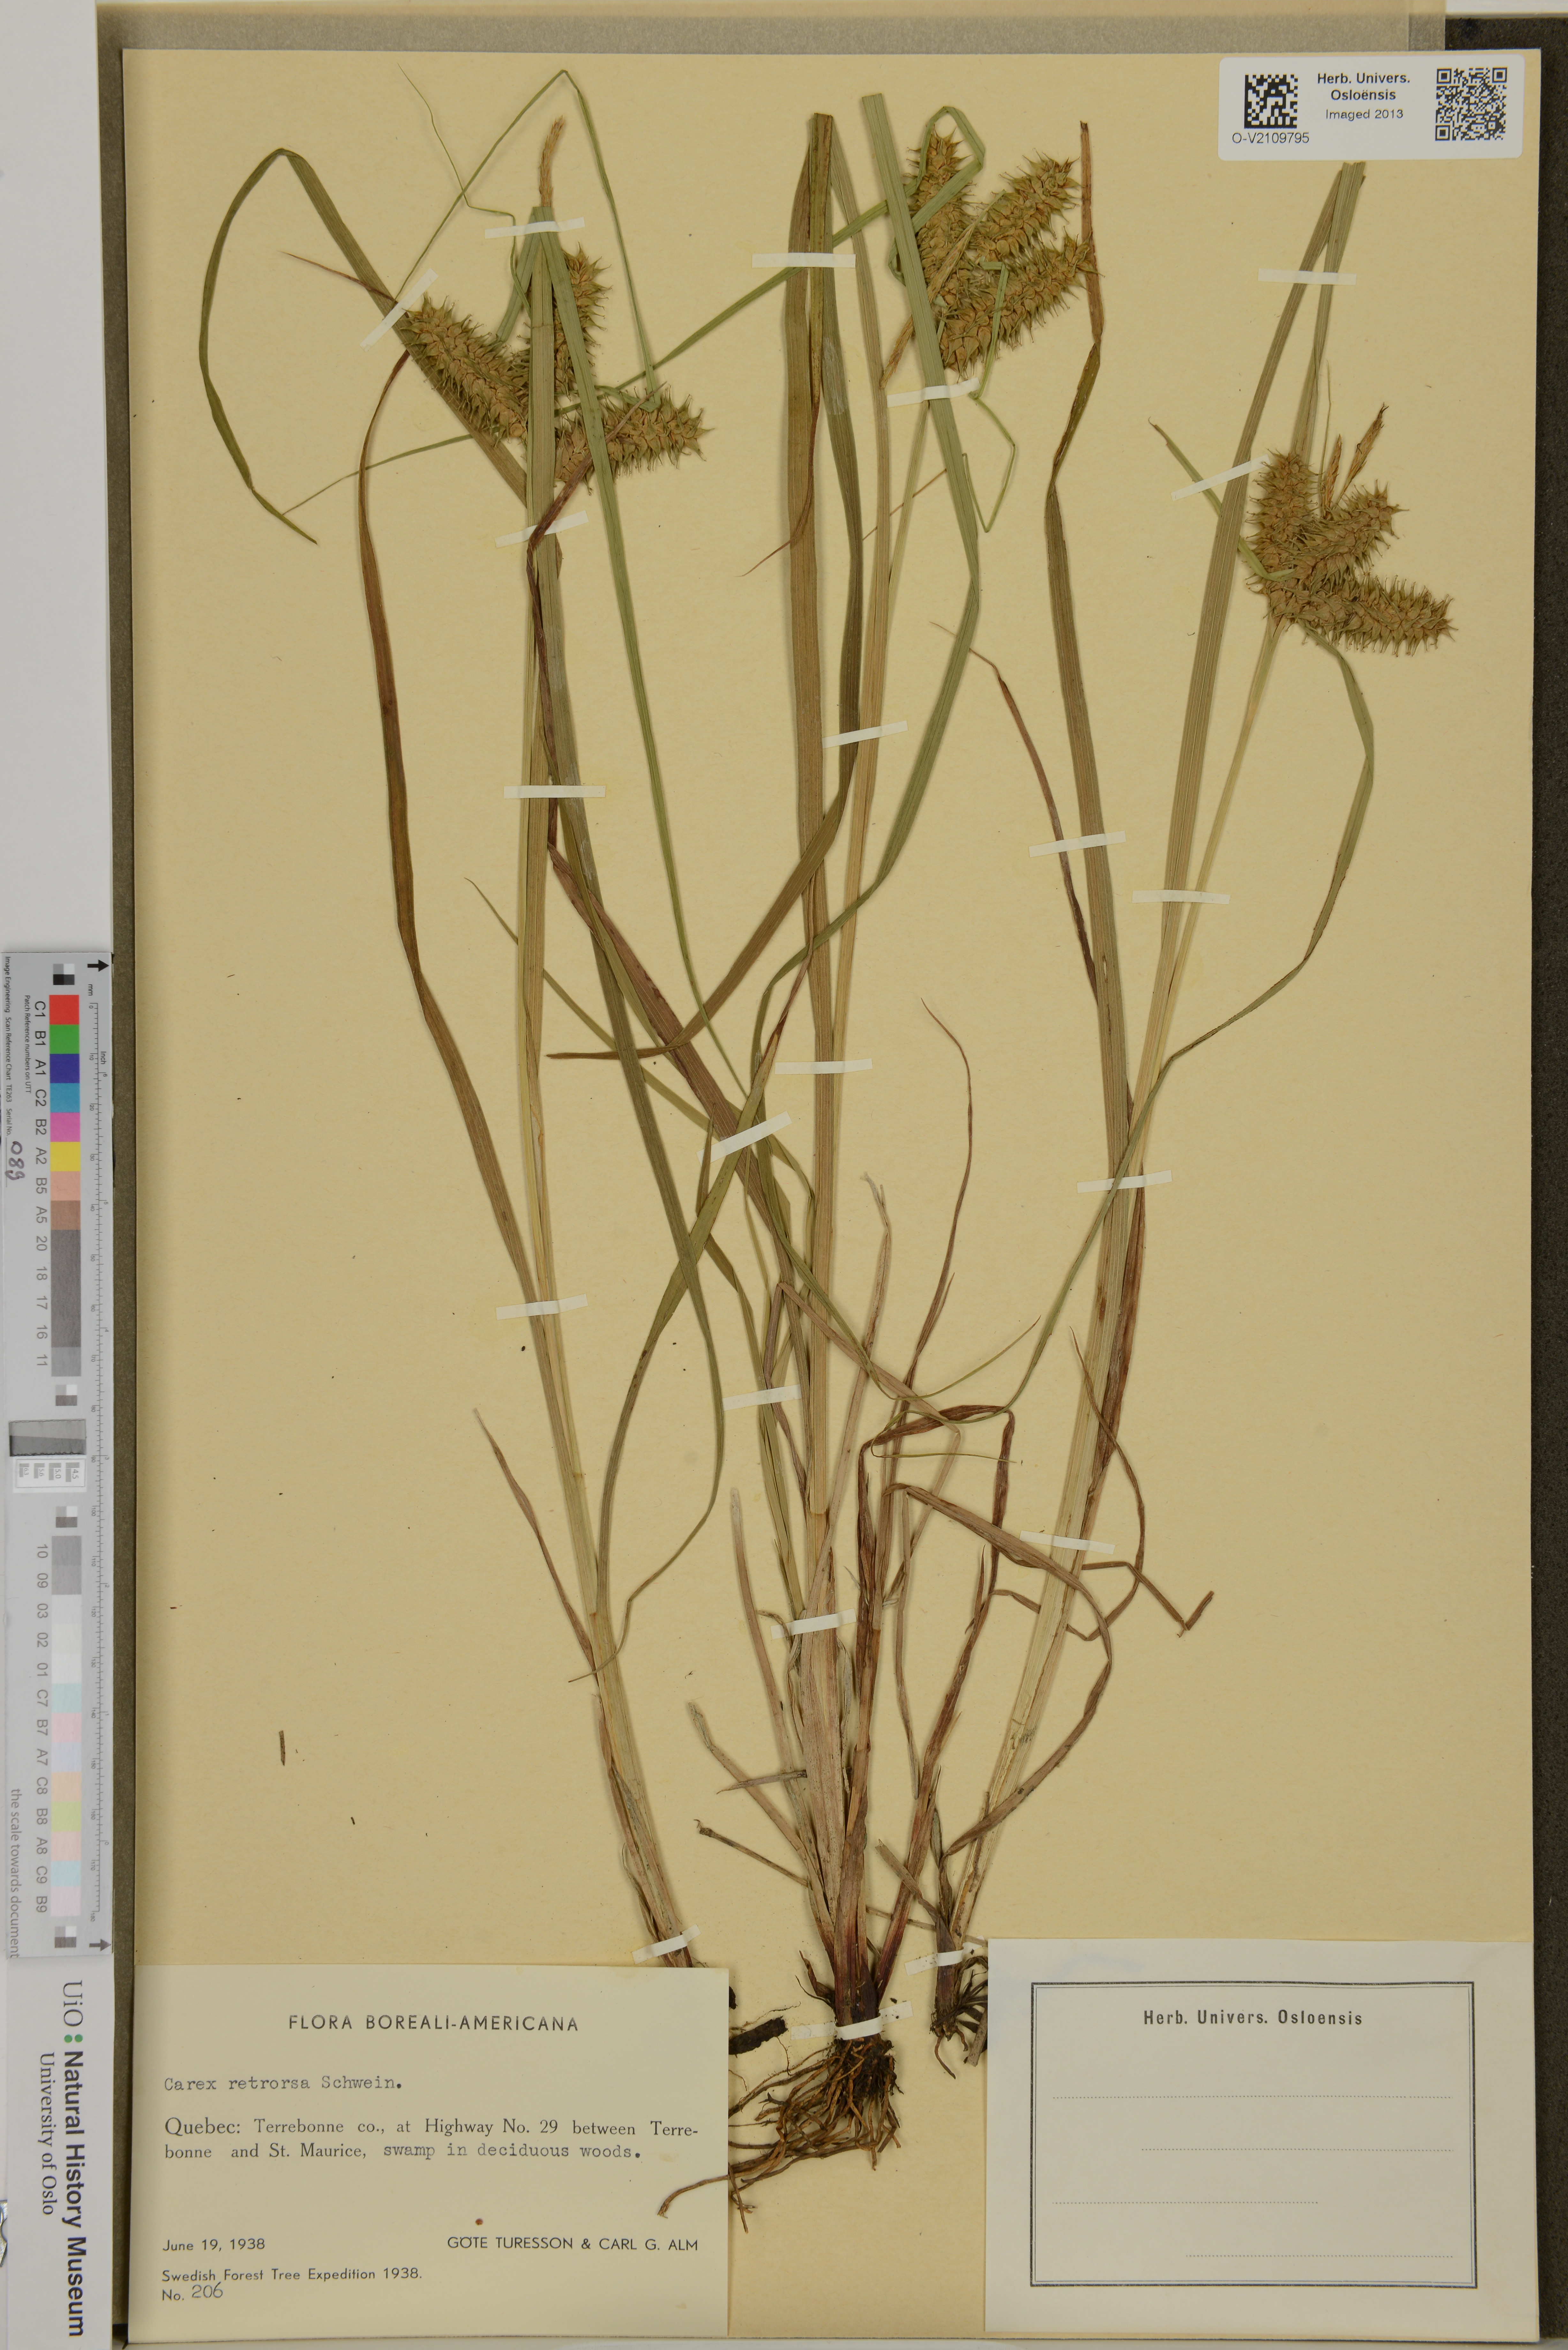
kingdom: Plantae
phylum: Tracheophyta
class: Liliopsida
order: Poales
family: Cyperaceae
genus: Carex
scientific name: Carex retrorsa
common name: Knot-sheath sedge
